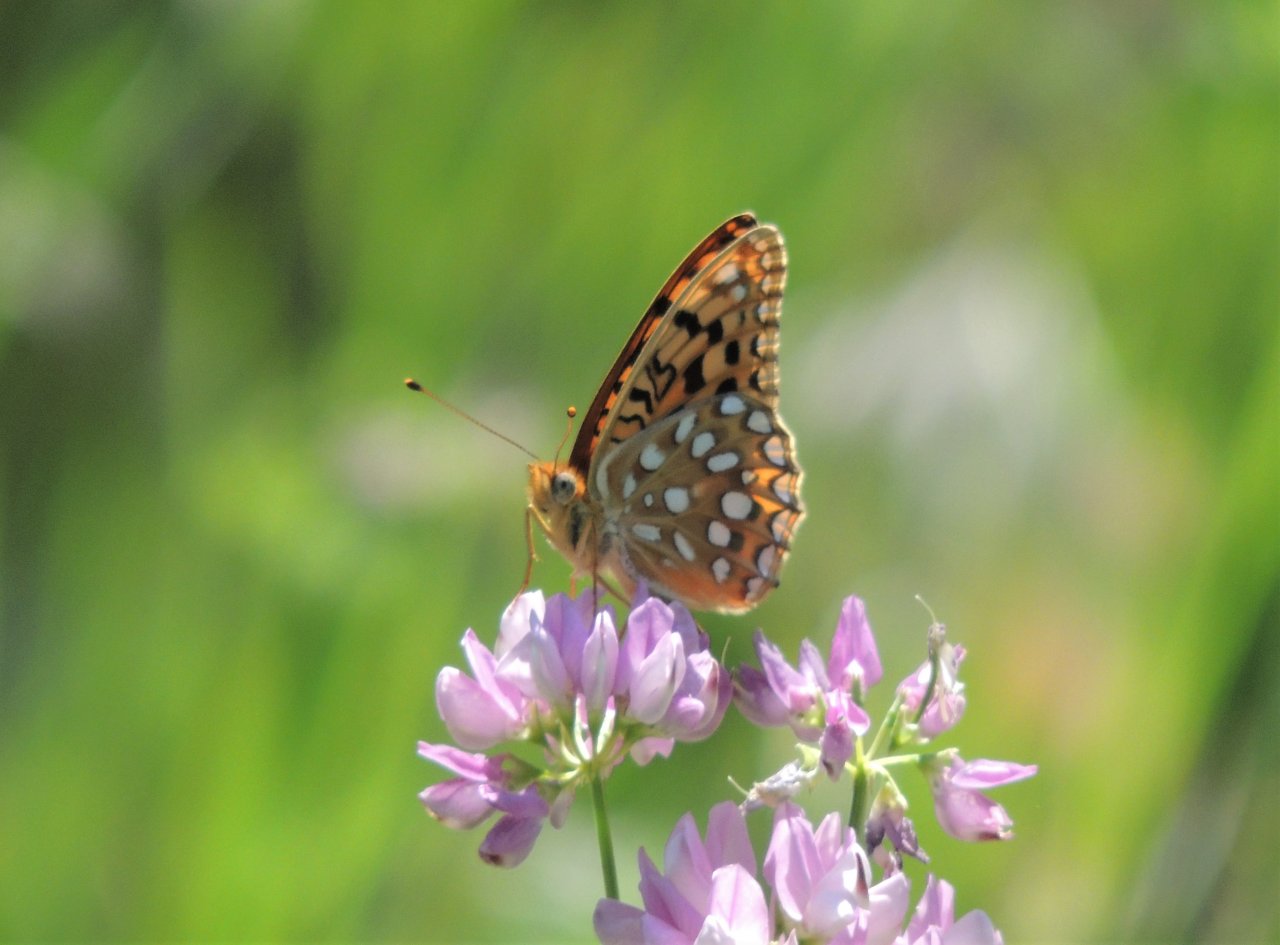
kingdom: Animalia
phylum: Arthropoda
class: Insecta
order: Lepidoptera
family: Nymphalidae
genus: Speyeria
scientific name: Speyeria zerene
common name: Zerene Fritillary
